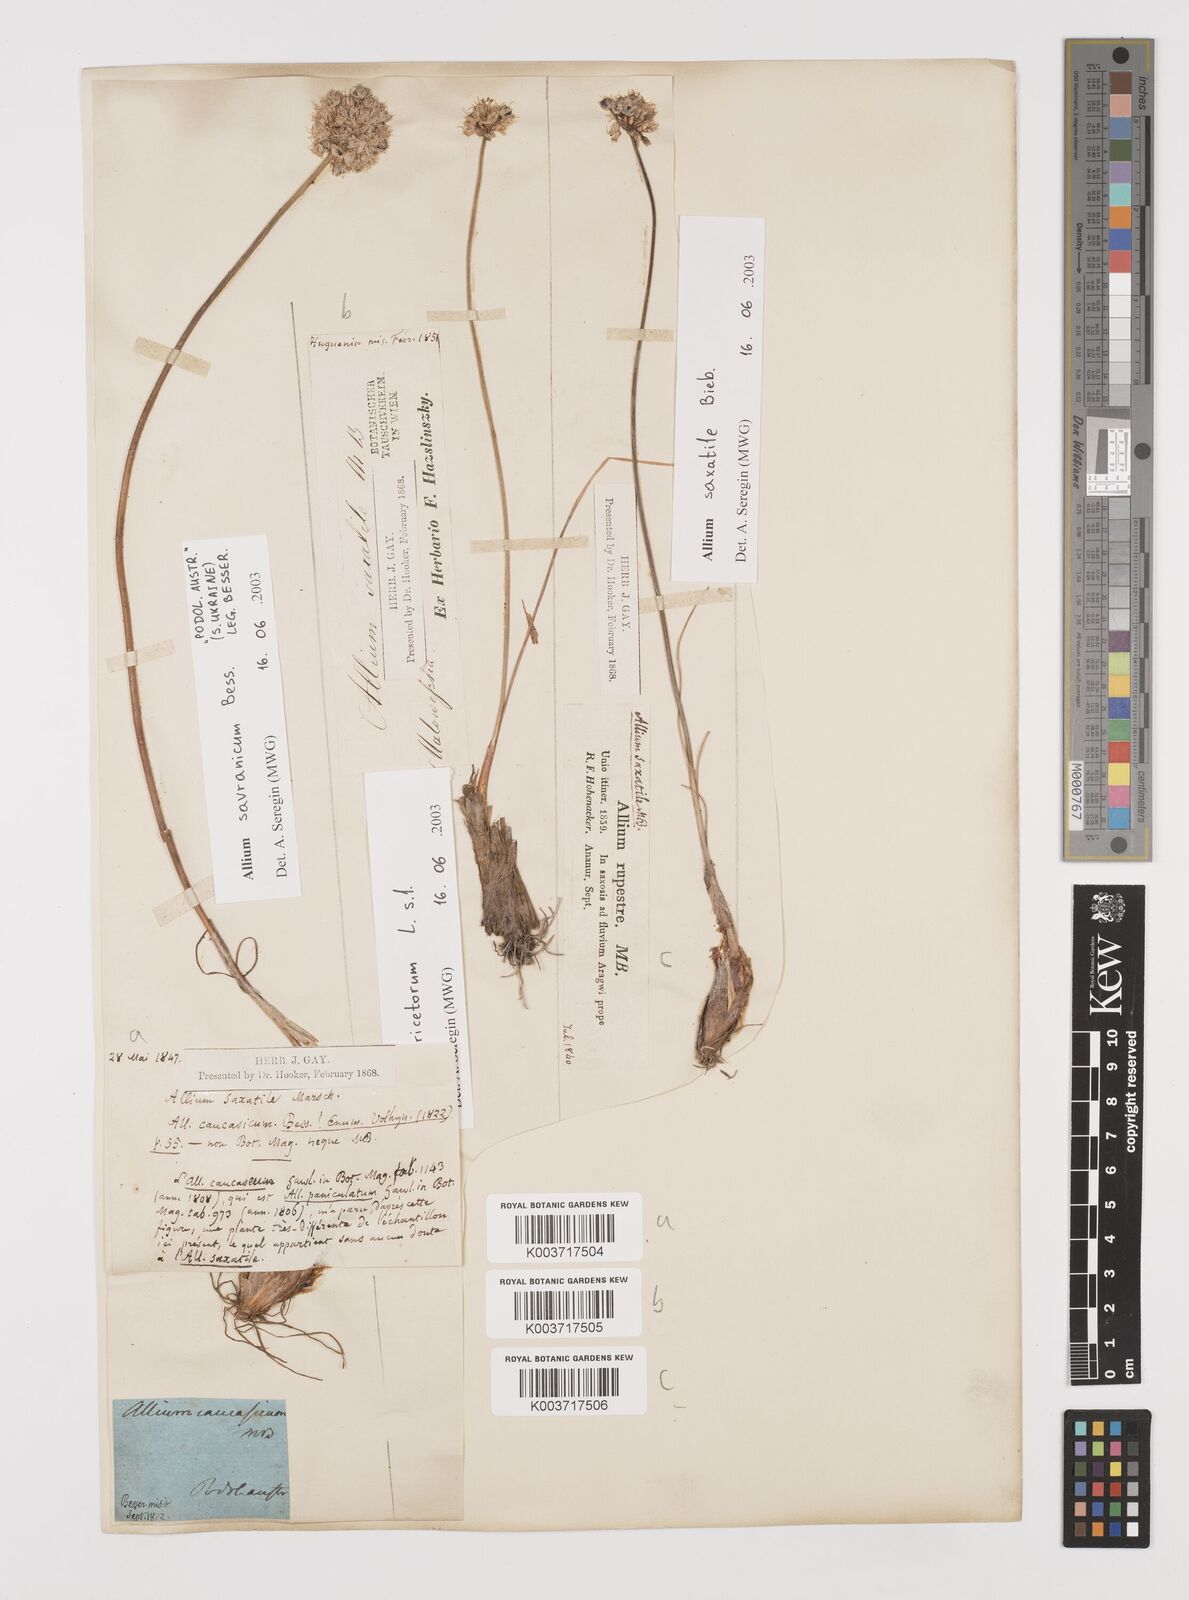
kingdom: Plantae
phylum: Tracheophyta
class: Liliopsida
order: Asparagales
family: Amaryllidaceae
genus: Allium
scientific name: Allium saxatile
